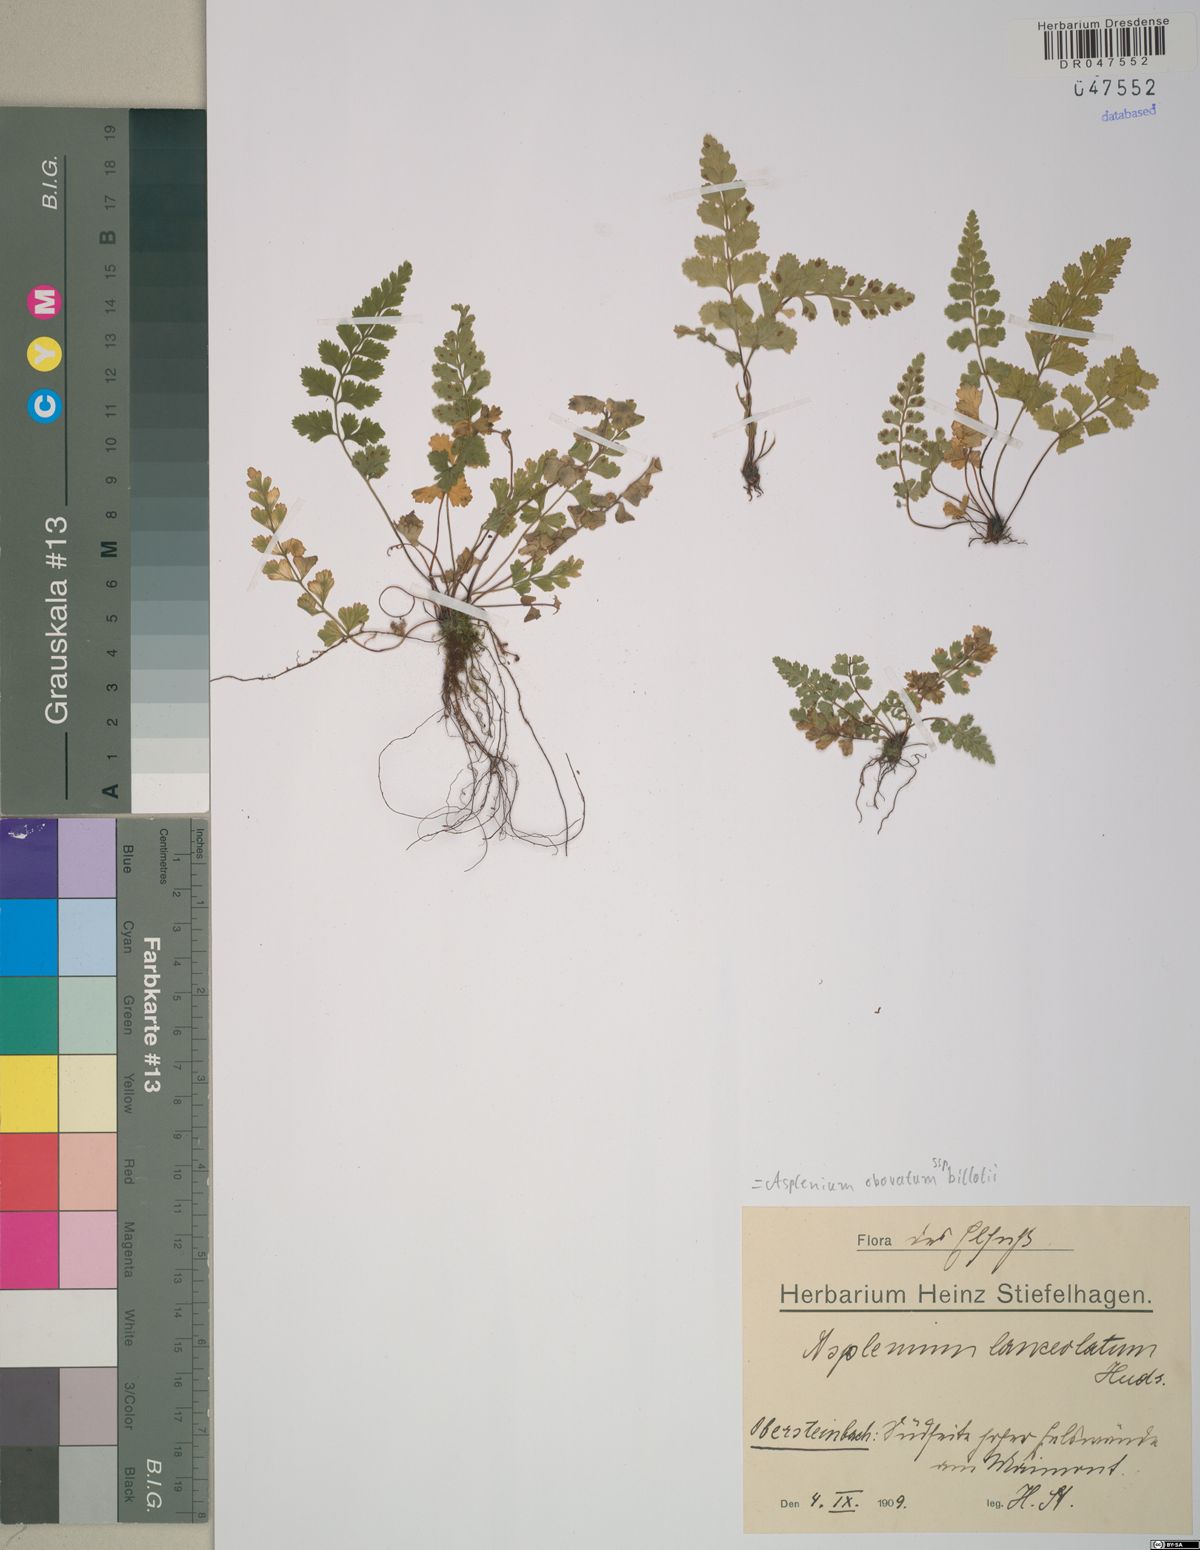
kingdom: Plantae
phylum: Tracheophyta
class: Polypodiopsida
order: Polypodiales
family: Aspleniaceae
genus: Asplenium
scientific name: Asplenium obovatum
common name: Lanceolate spleenwort
